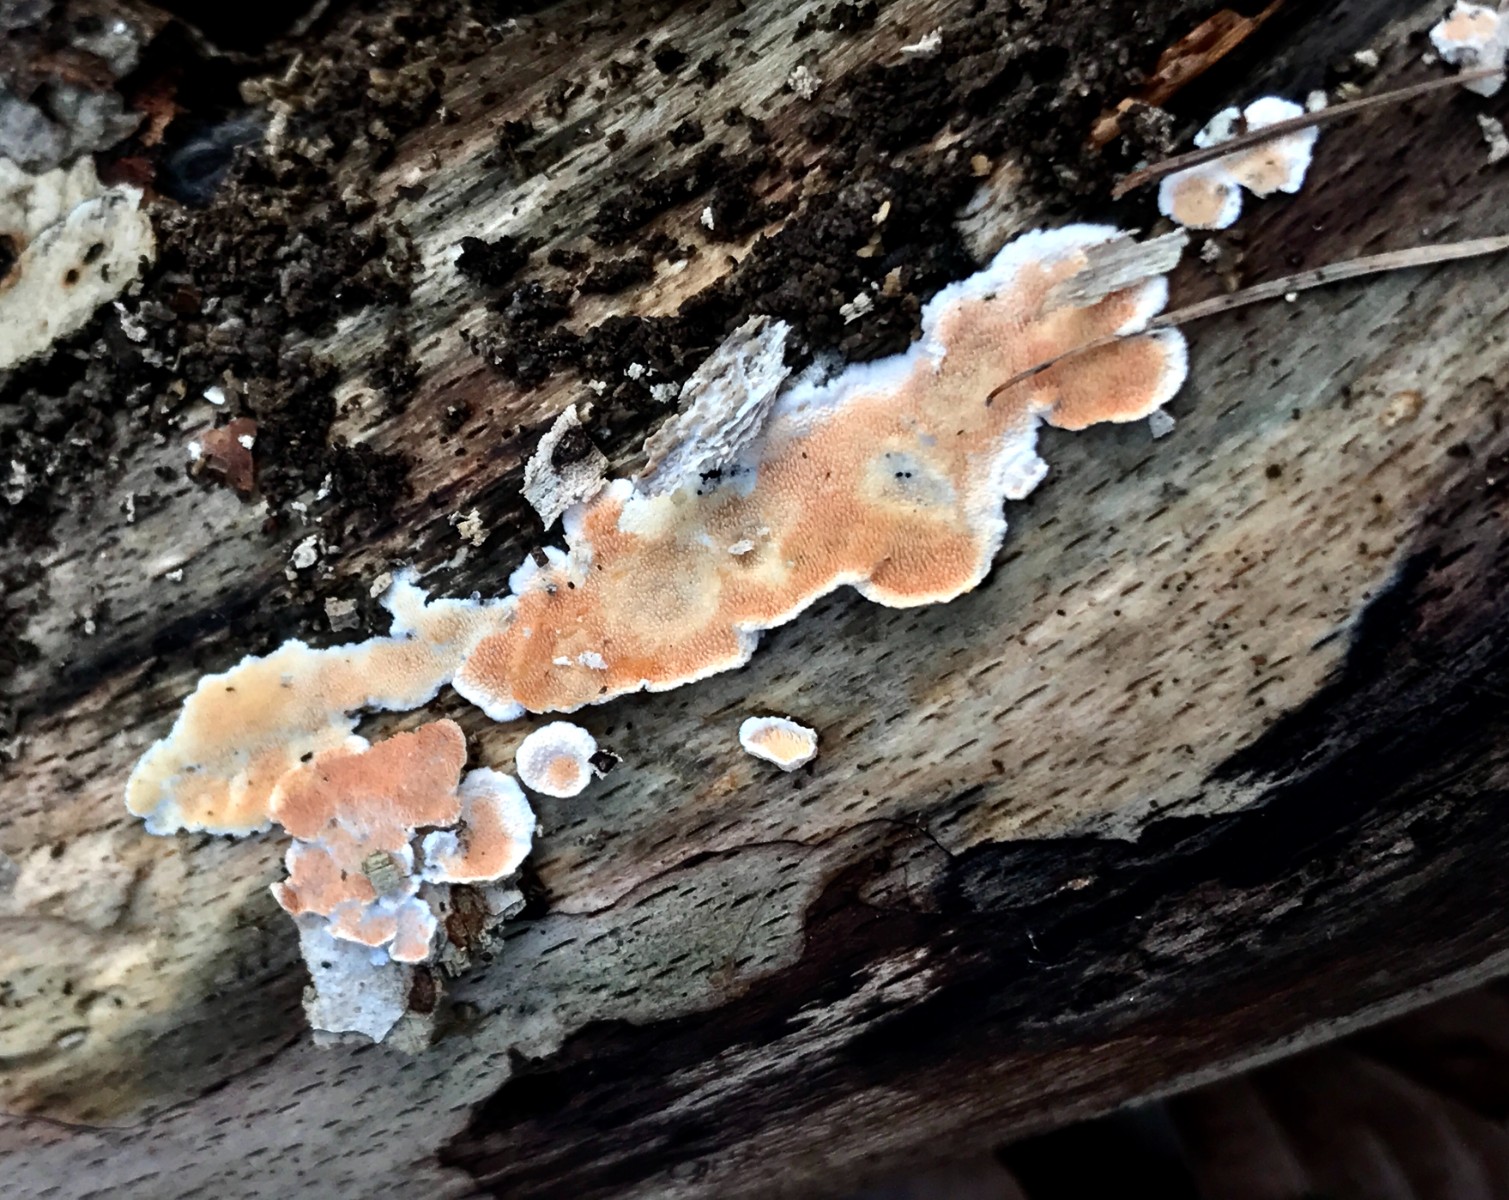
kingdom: Fungi
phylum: Basidiomycota
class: Agaricomycetes
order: Polyporales
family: Steccherinaceae
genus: Steccherinum
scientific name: Steccherinum ochraceum
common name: almindelig skønpig
